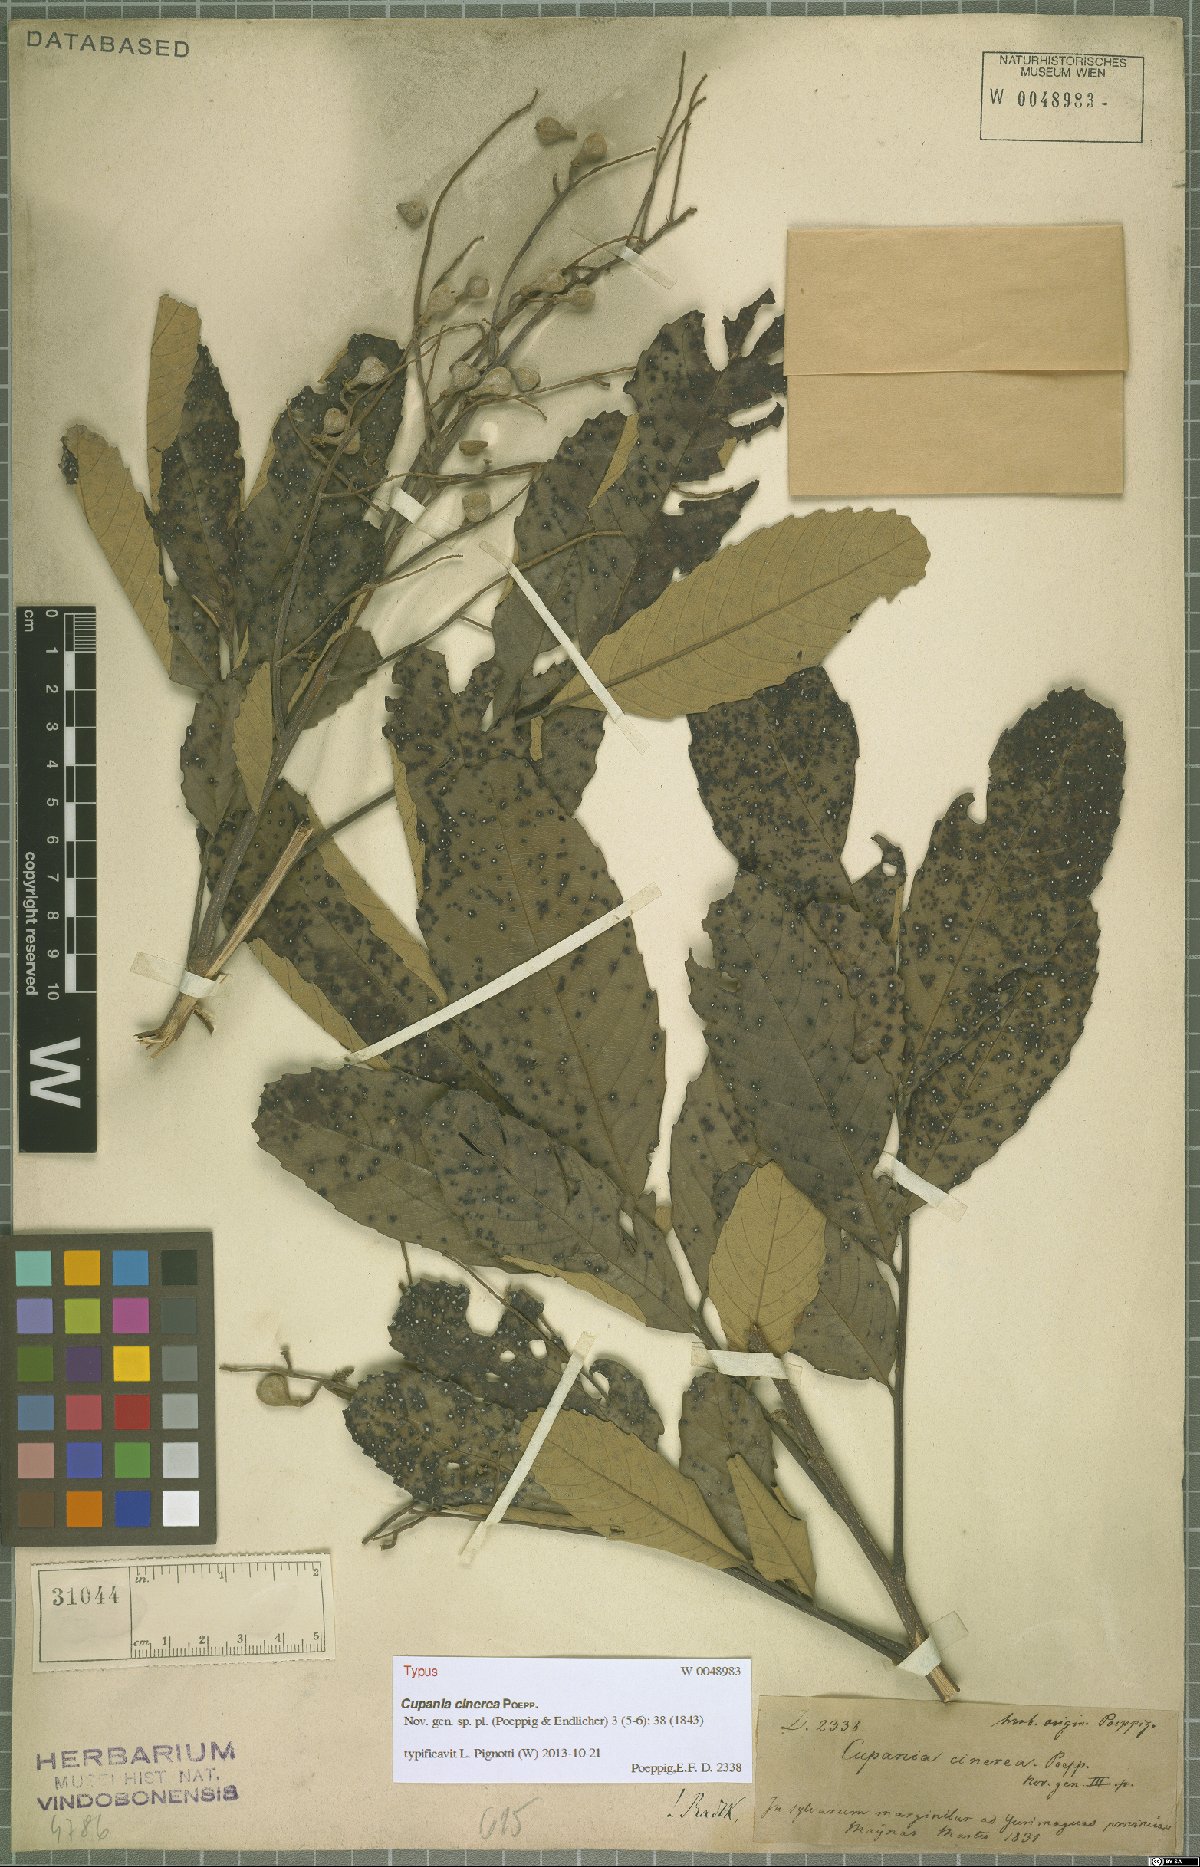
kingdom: Plantae
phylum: Tracheophyta
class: Magnoliopsida
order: Sapindales
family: Sapindaceae
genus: Cupania
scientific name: Cupania cinerea
